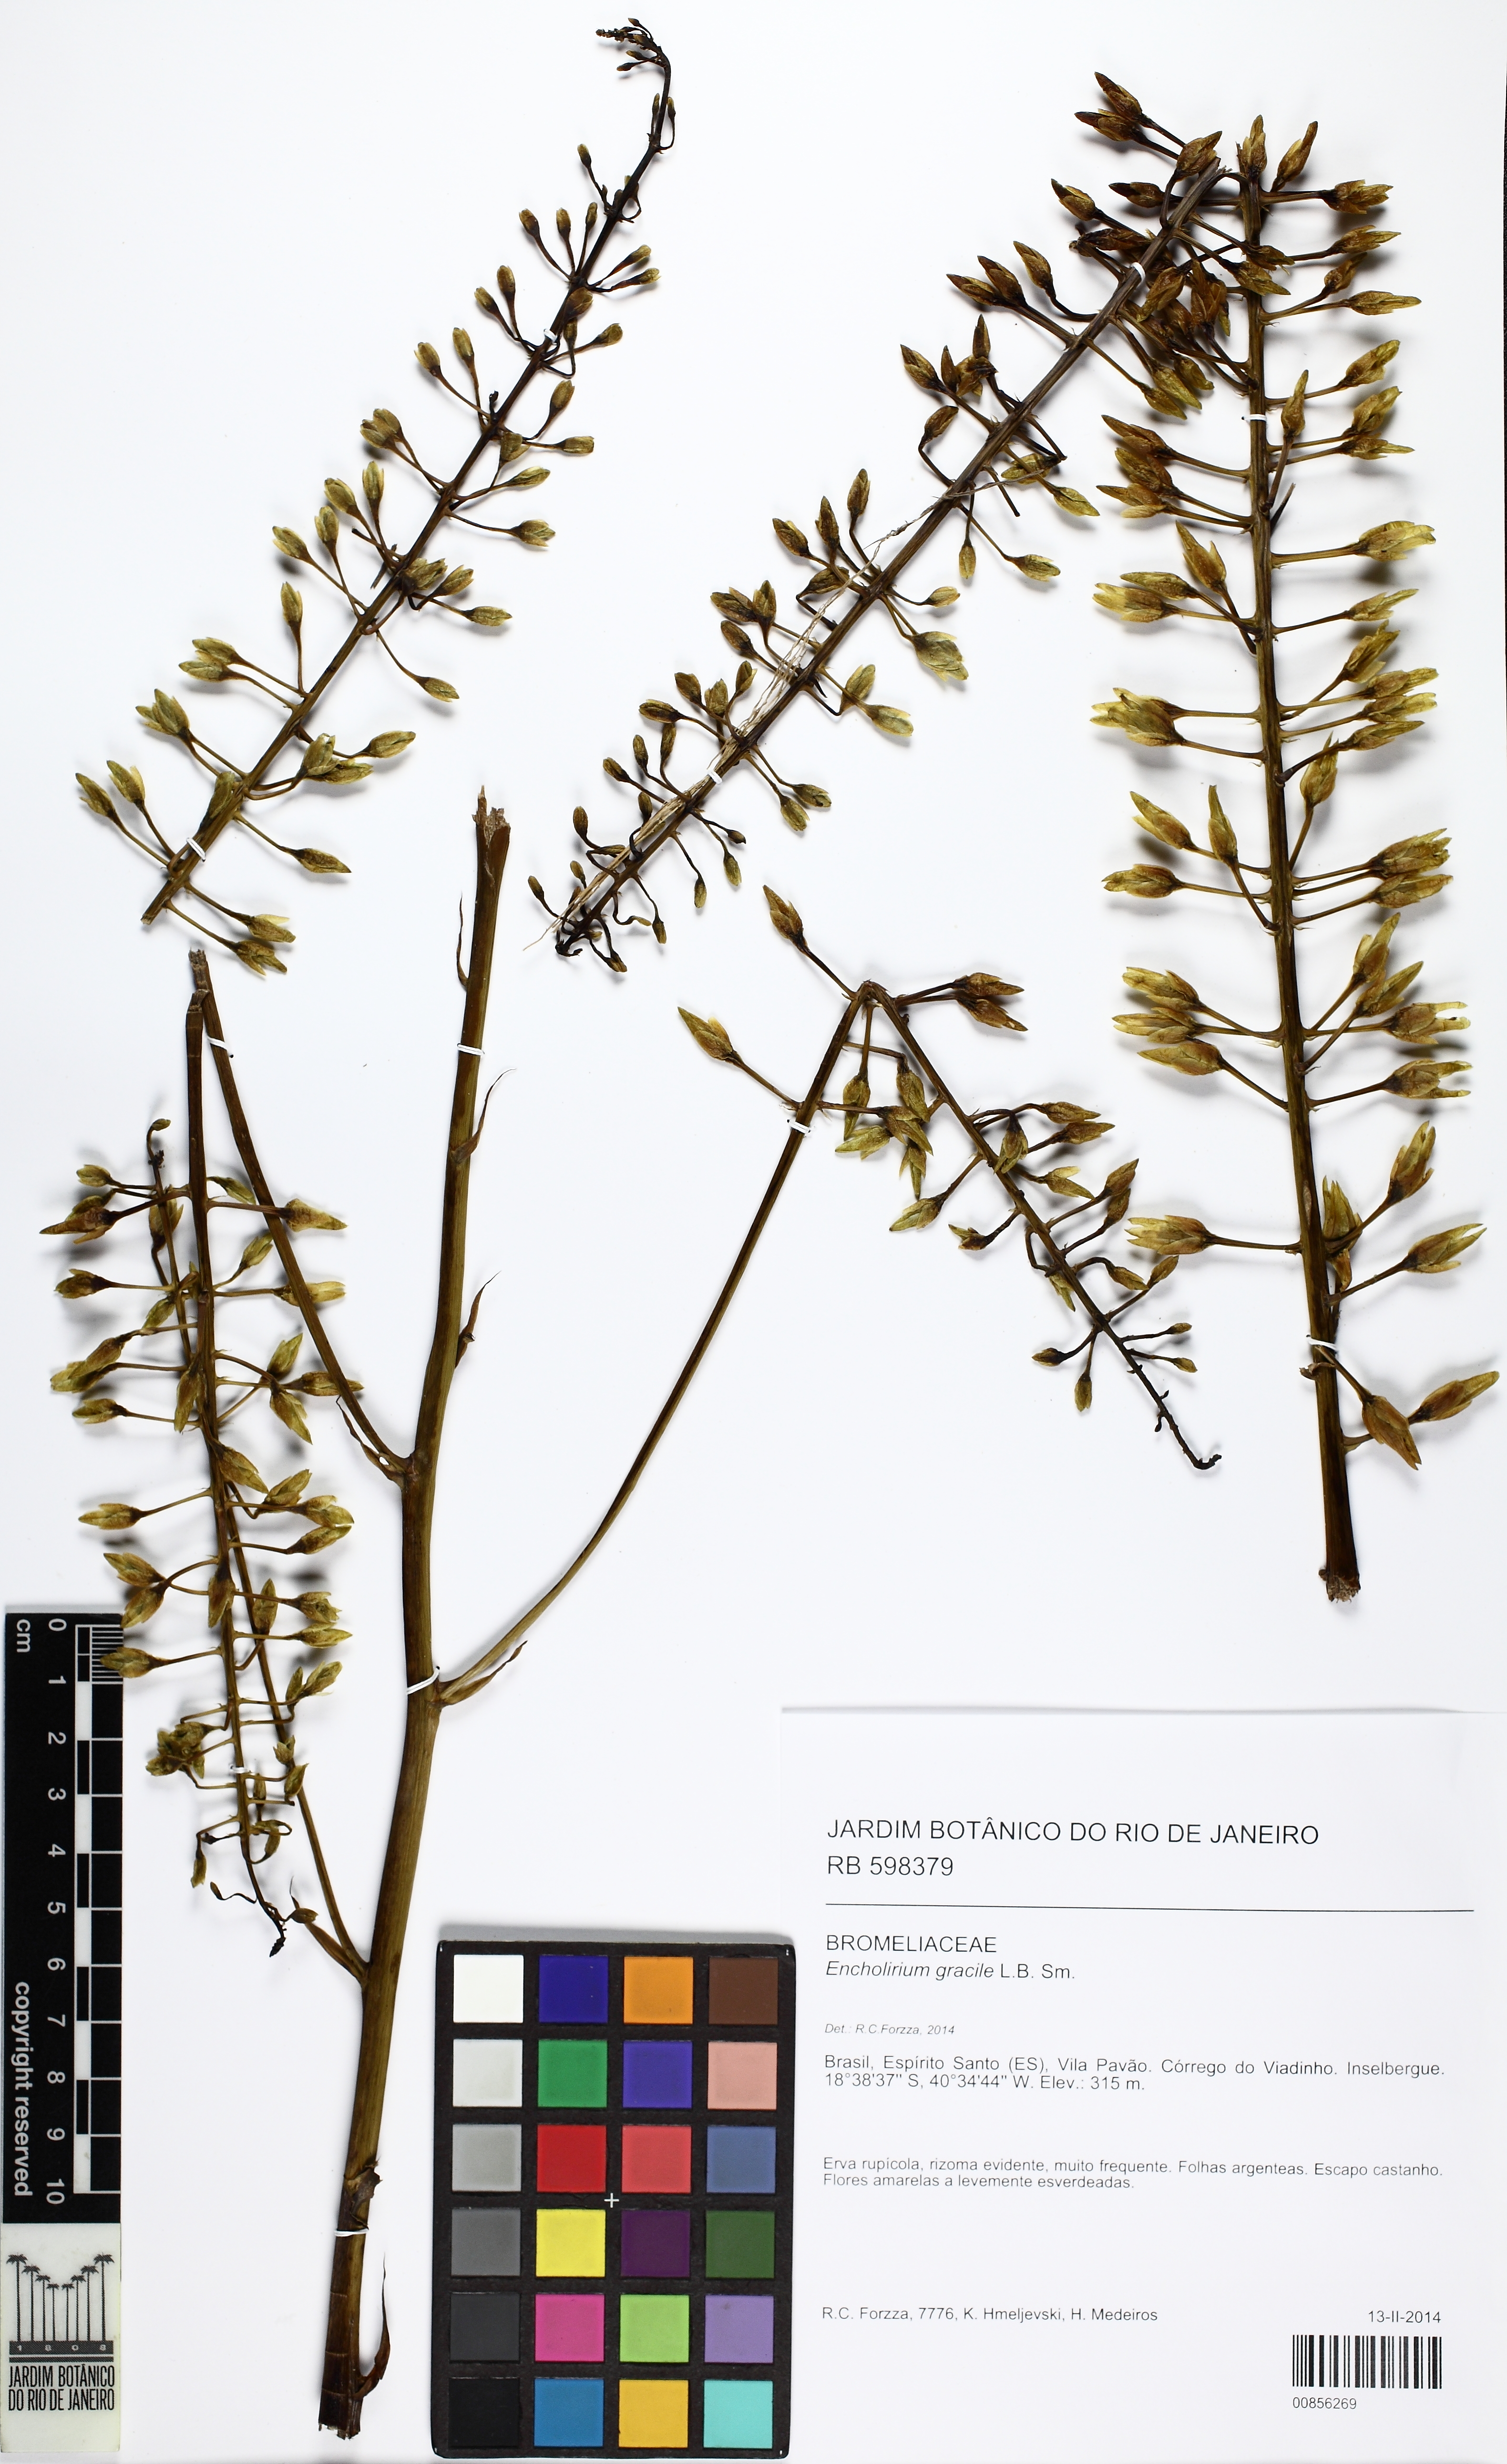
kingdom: Plantae
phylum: Tracheophyta
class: Liliopsida
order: Poales
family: Bromeliaceae
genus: Encholirium
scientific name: Encholirium gracile
